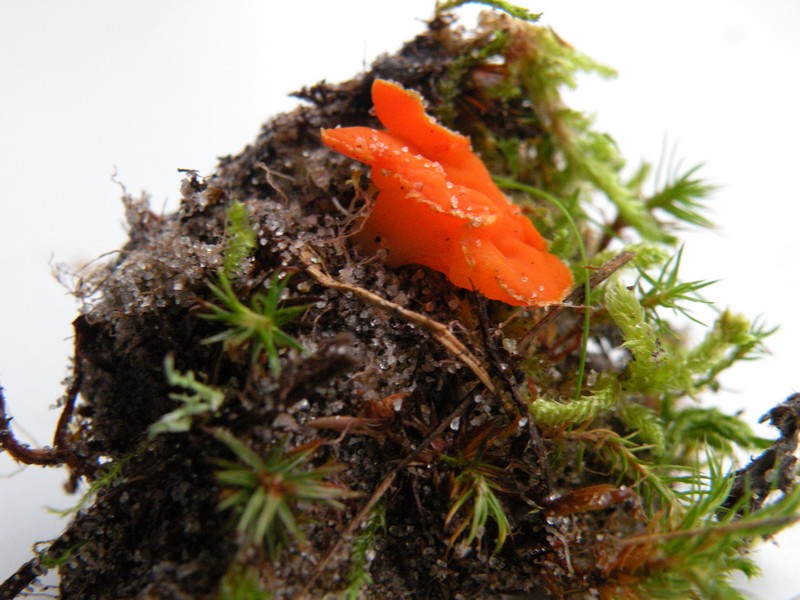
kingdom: Fungi
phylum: Ascomycota
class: Pezizomycetes
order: Pezizales
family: Pyronemataceae
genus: Neottiella
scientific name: Neottiella rutilans
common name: jomfruhår-mosbæger
